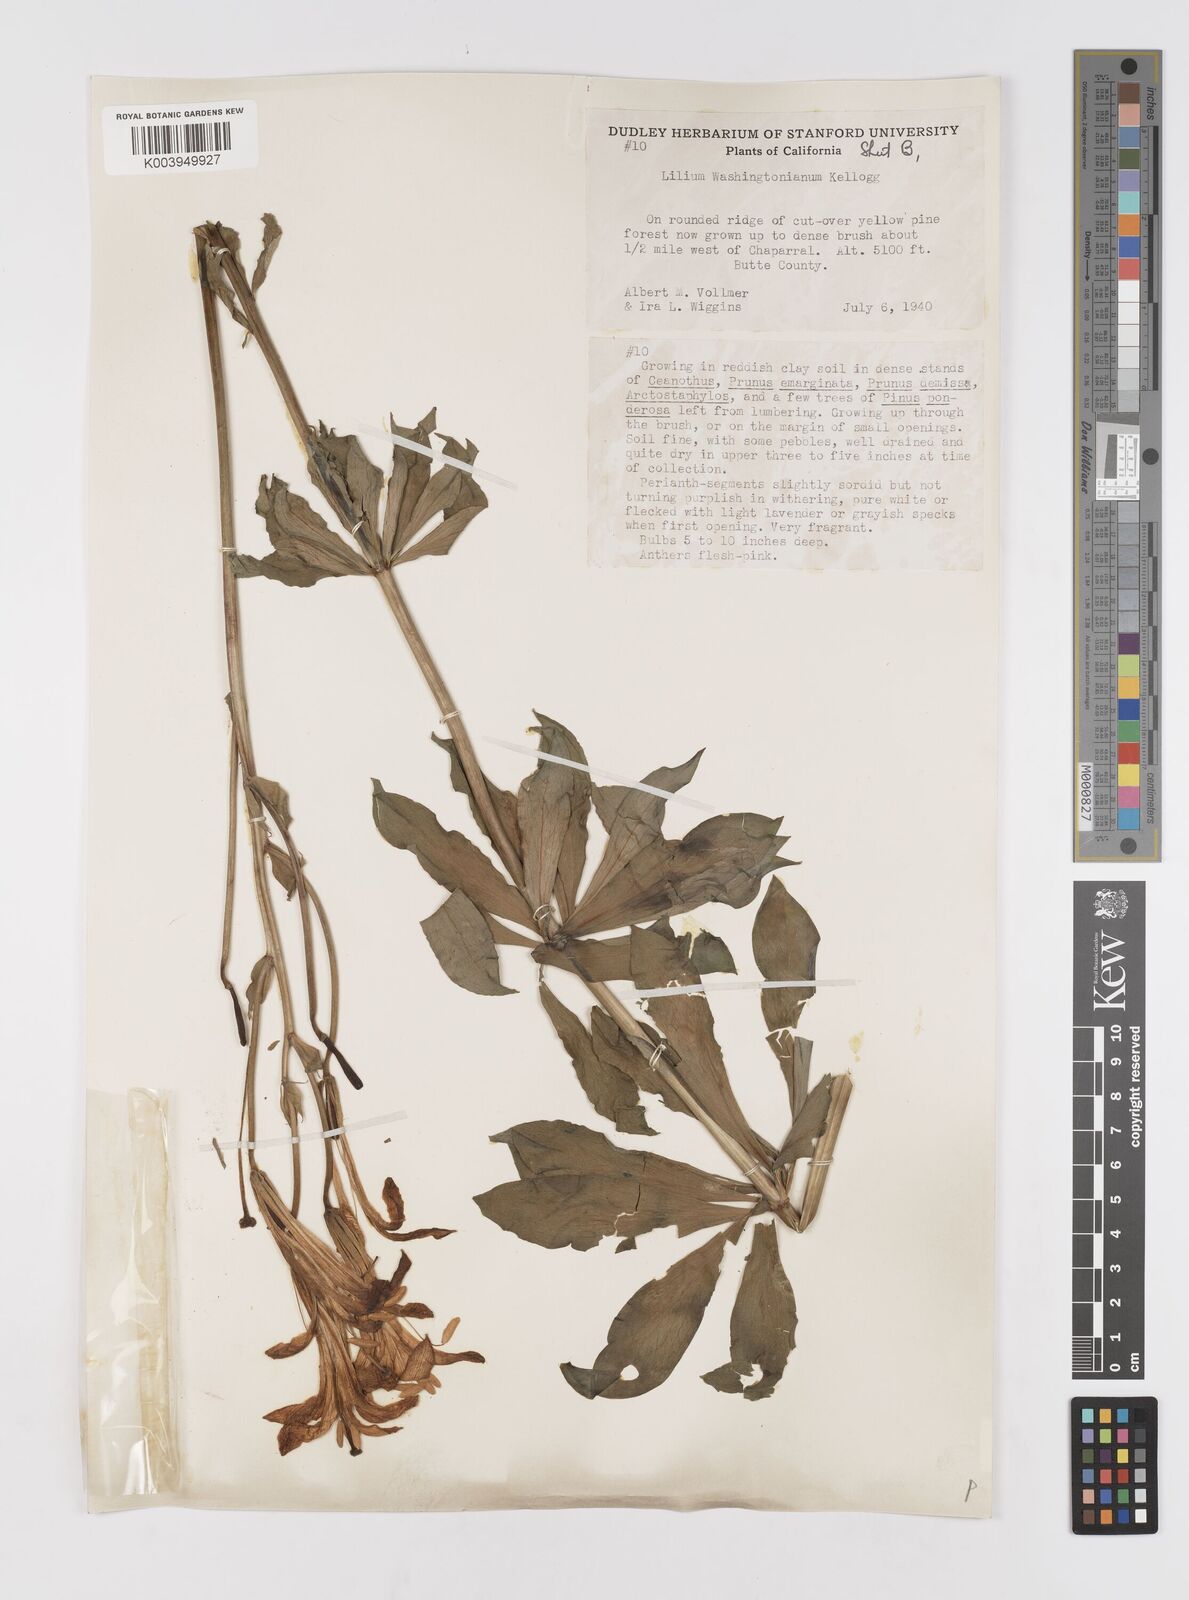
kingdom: Plantae
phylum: Tracheophyta
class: Liliopsida
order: Liliales
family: Liliaceae
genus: Lilium
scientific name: Lilium washingtonianum
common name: Washington lily
